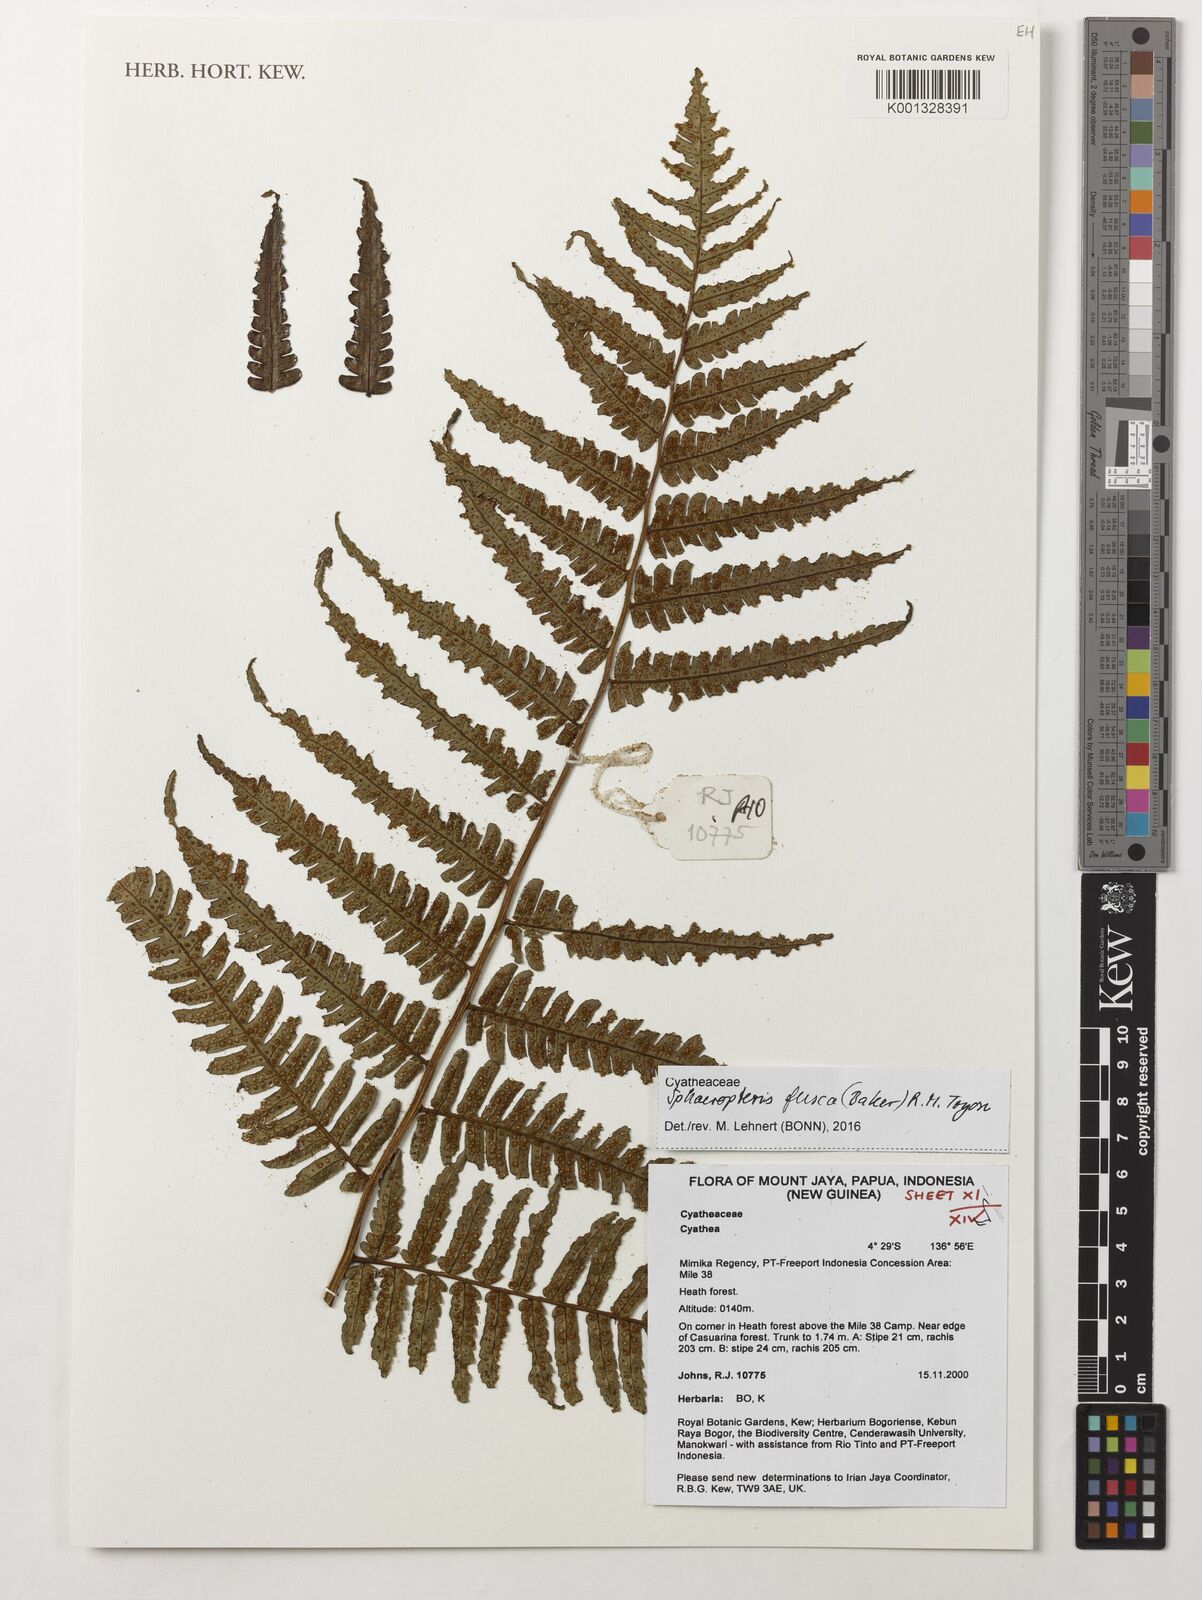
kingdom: Plantae
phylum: Tracheophyta
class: Polypodiopsida
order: Cyatheales
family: Cyatheaceae
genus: Sphaeropteris
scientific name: Sphaeropteris fusca
